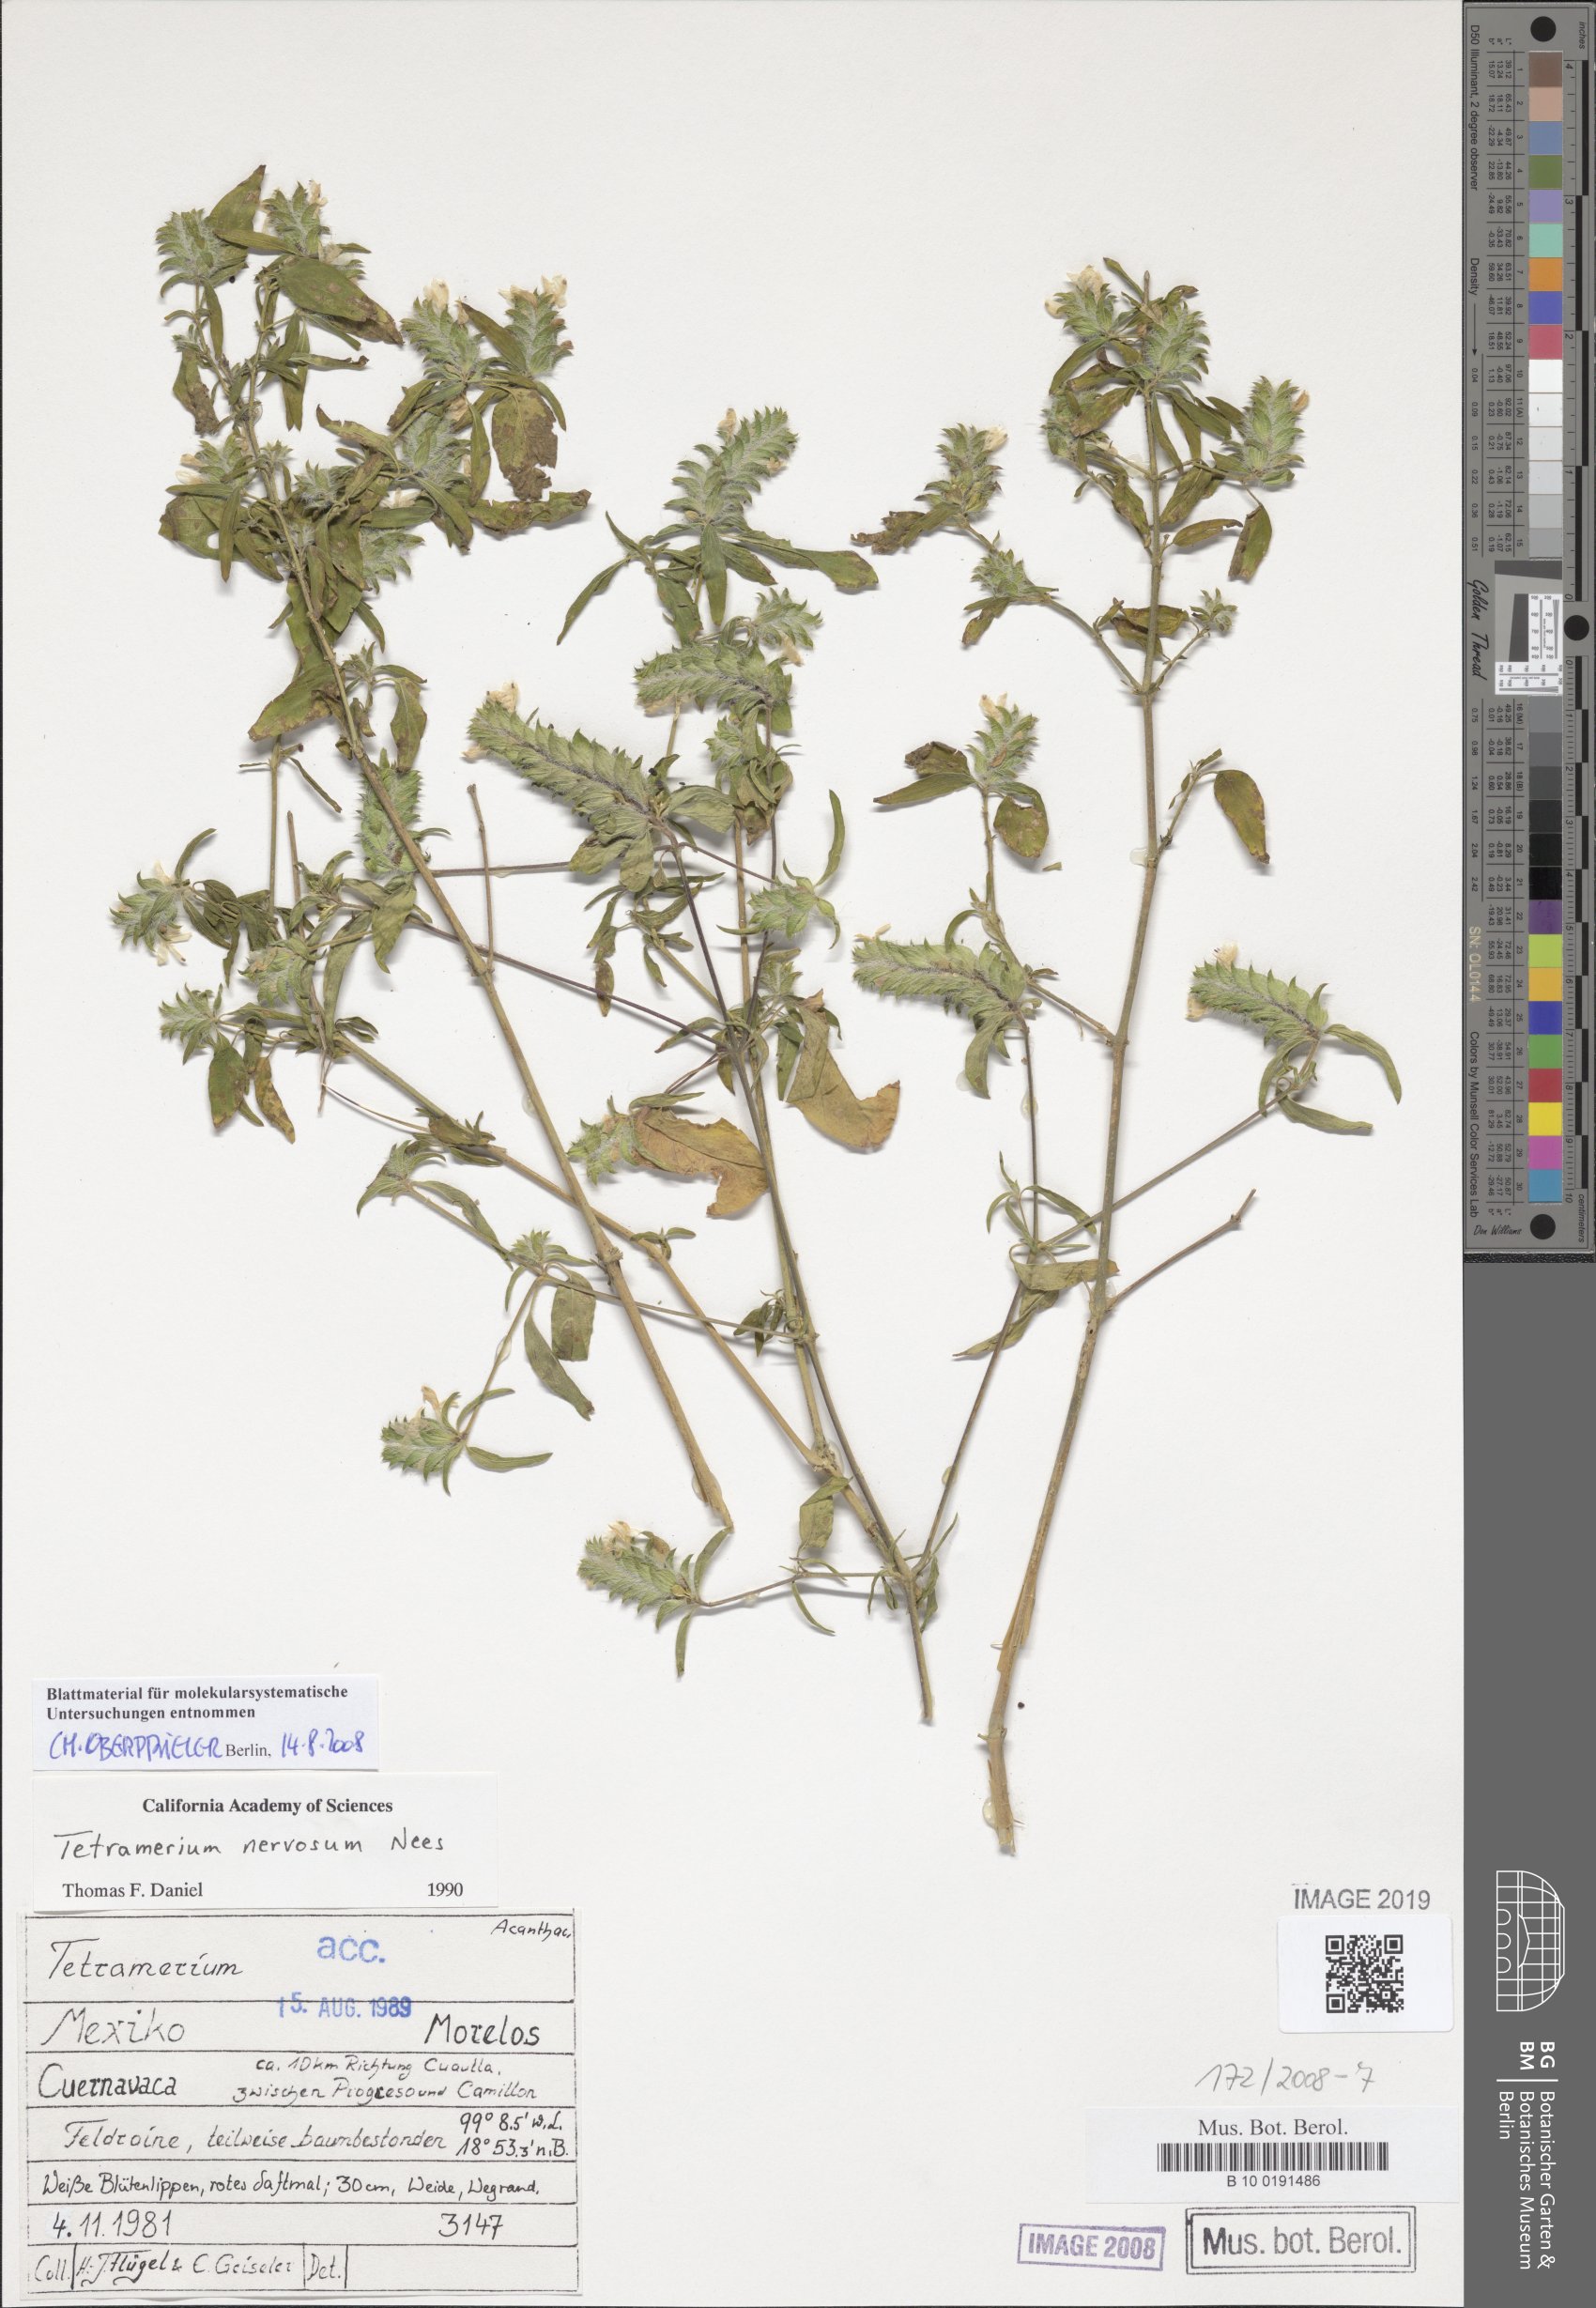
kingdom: Plantae
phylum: Tracheophyta
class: Magnoliopsida
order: Lamiales
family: Acanthaceae
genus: Tetramerium
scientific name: Tetramerium nervosum
